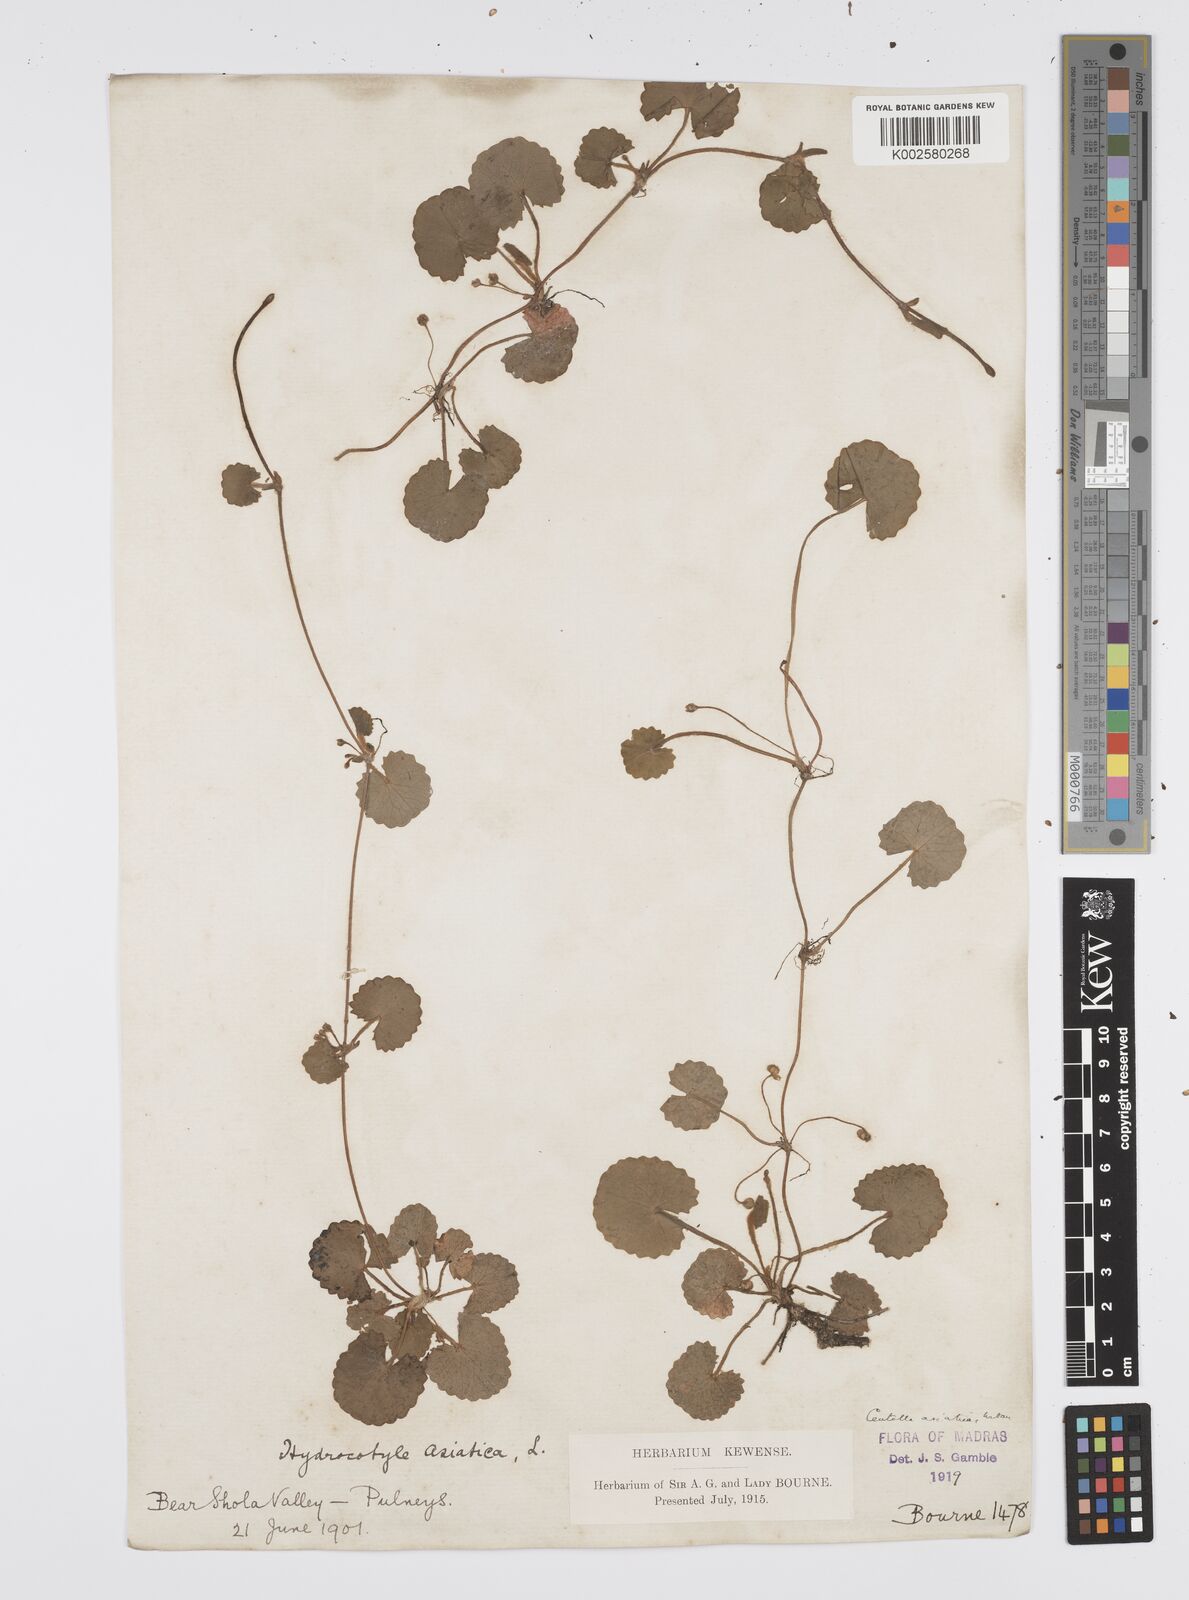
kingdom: Plantae
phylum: Tracheophyta
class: Magnoliopsida
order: Apiales
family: Apiaceae
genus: Centella
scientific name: Centella asiatica
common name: Spadeleaf
